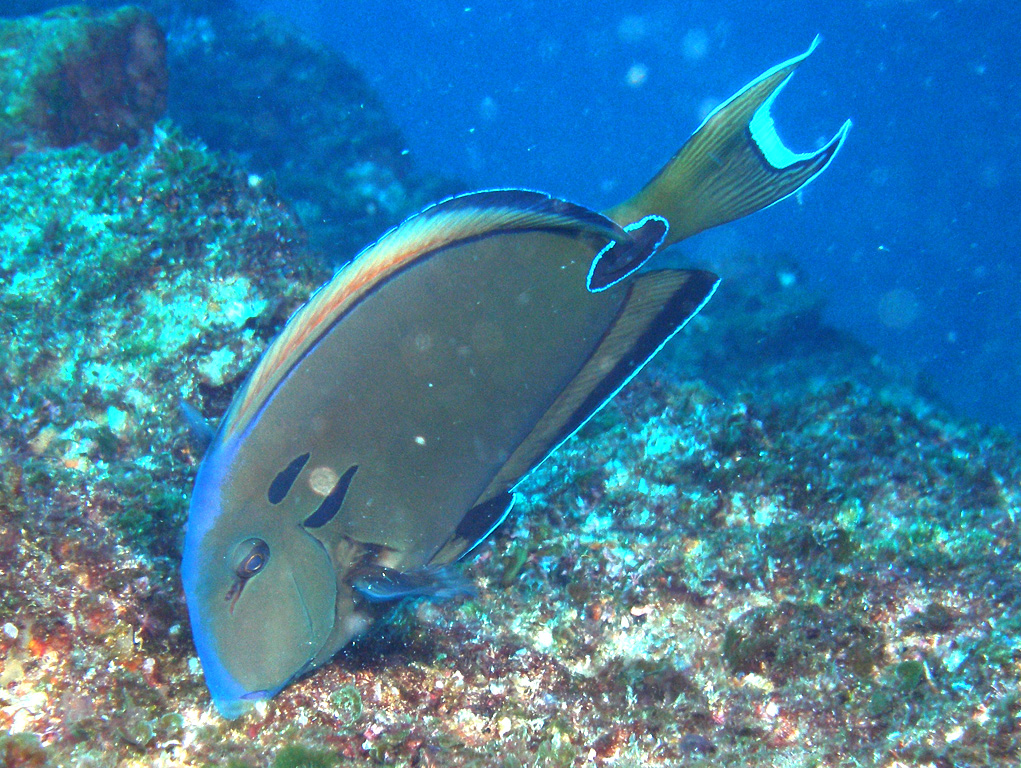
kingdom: Animalia
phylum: Chordata
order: Perciformes
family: Acanthuridae
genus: Acanthurus
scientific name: Acanthurus tennentii
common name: Doubleband surgeonfish
